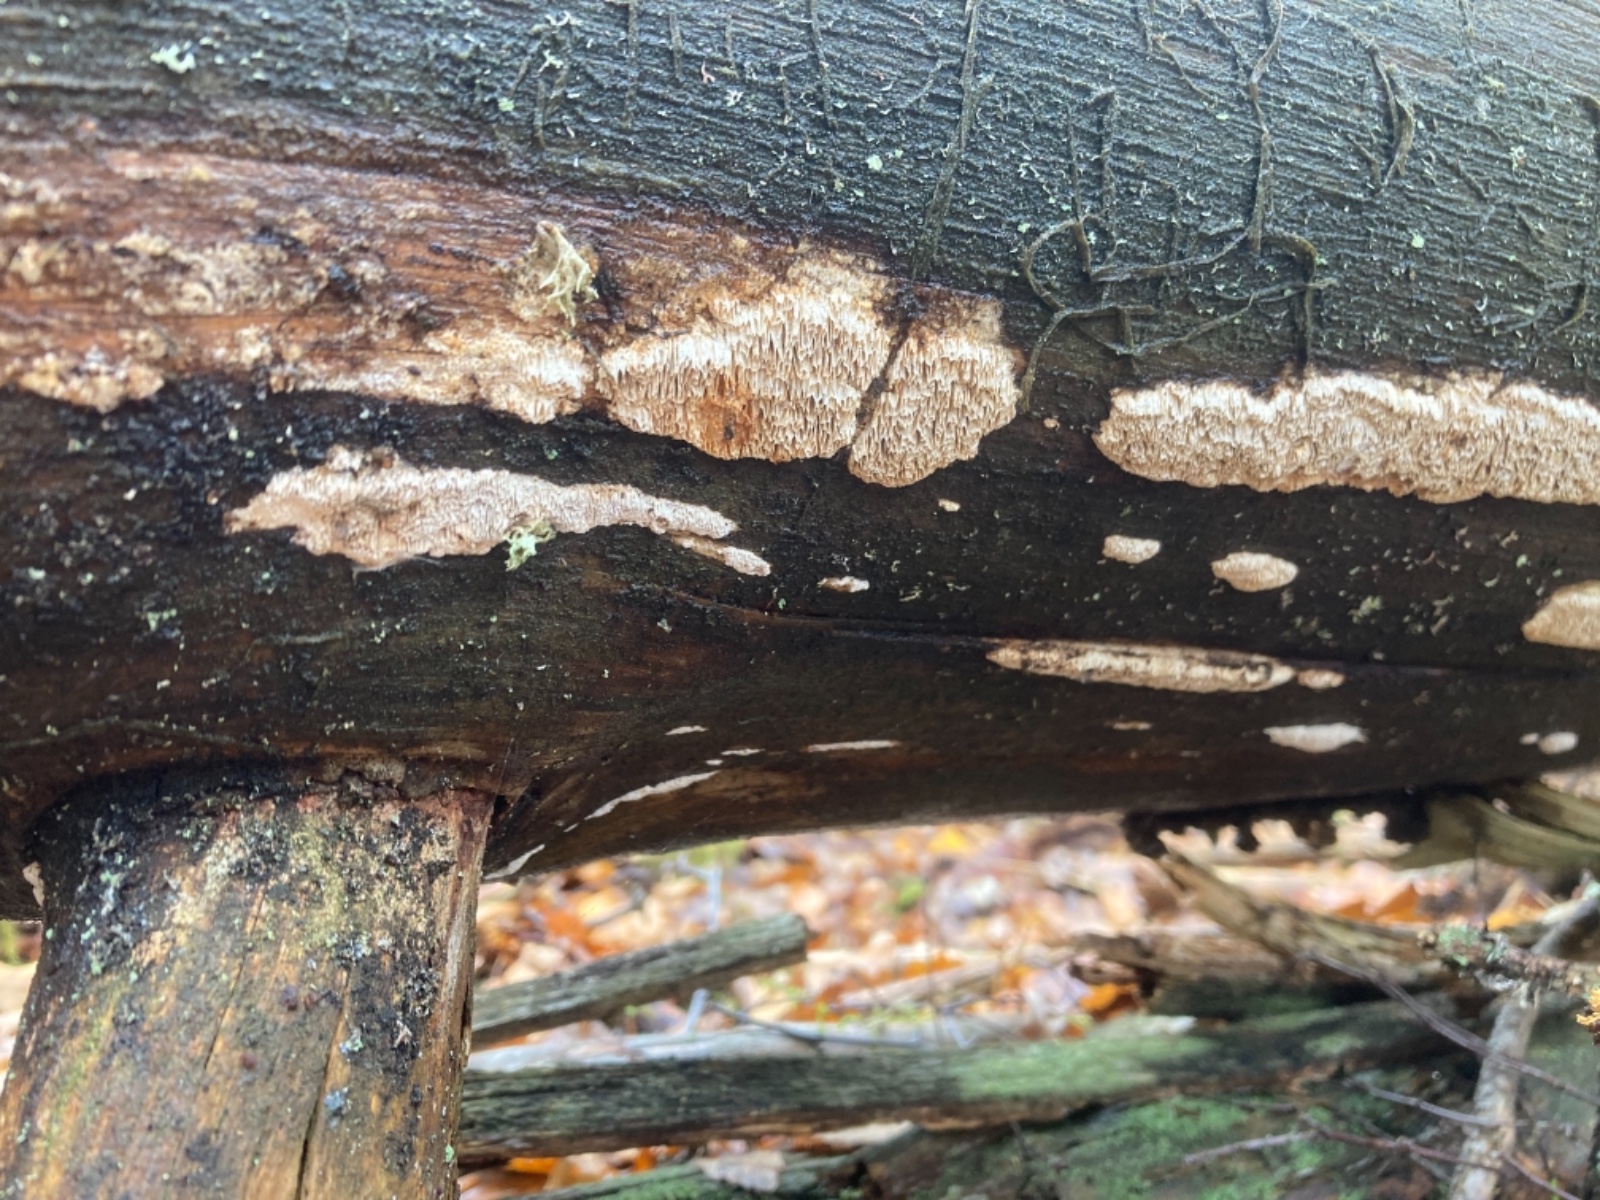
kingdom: Fungi
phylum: Basidiomycota
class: Agaricomycetes
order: Polyporales
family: Fomitopsidaceae
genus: Antrodia
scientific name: Antrodia
